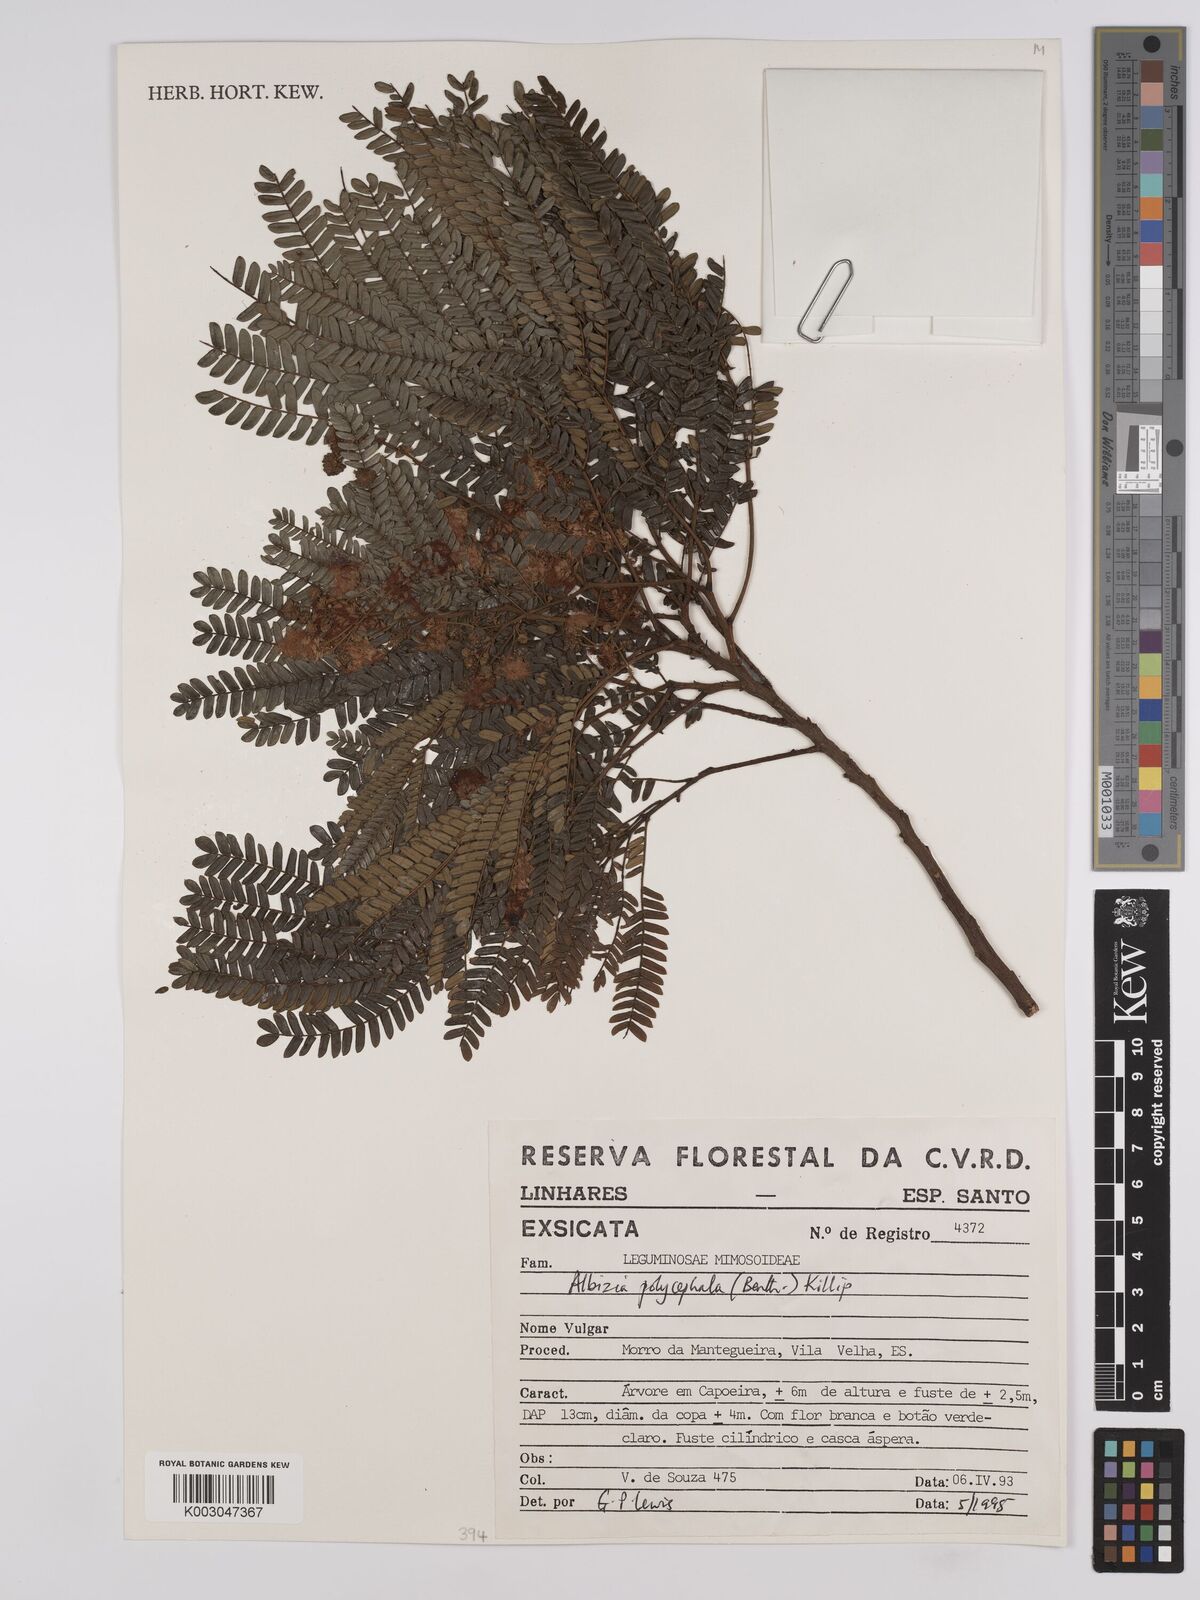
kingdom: Plantae
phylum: Tracheophyta
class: Magnoliopsida
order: Fabales
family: Fabaceae
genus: Albizia
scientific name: Albizia polycephala
